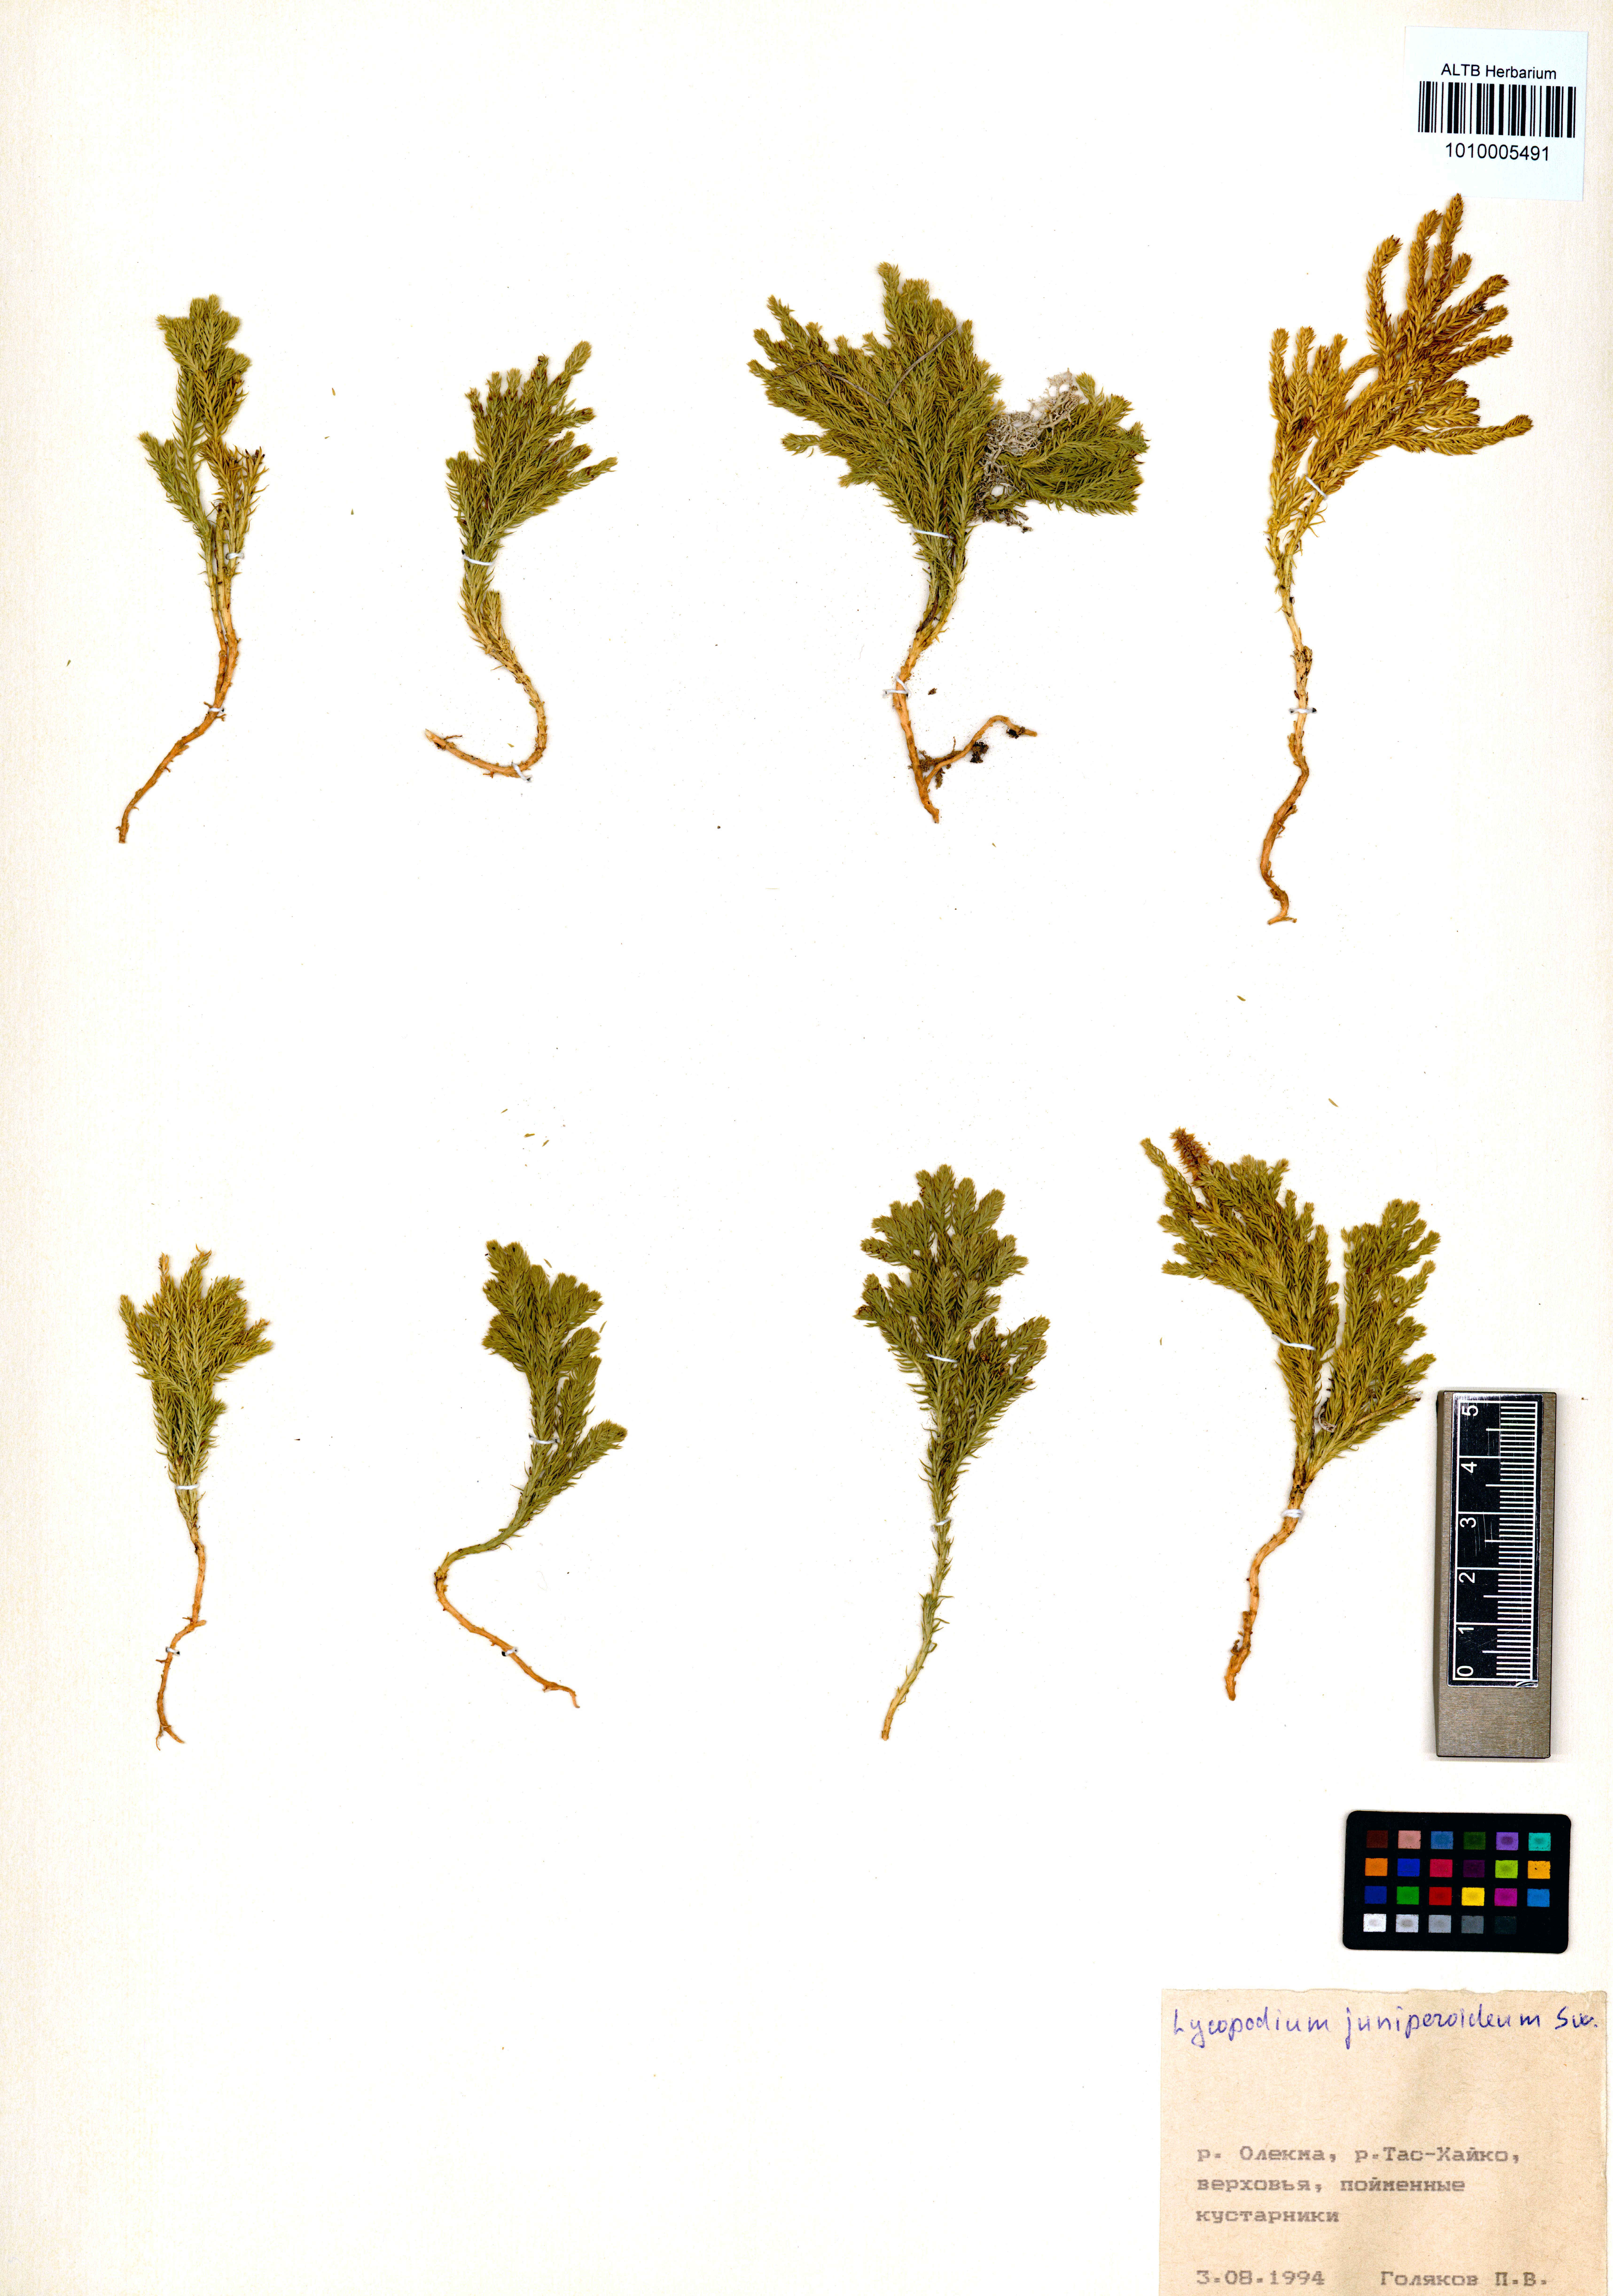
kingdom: Plantae
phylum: Tracheophyta
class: Lycopodiopsida
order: Lycopodiales
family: Lycopodiaceae
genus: Dendrolycopodium
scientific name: Dendrolycopodium juniperoideum
